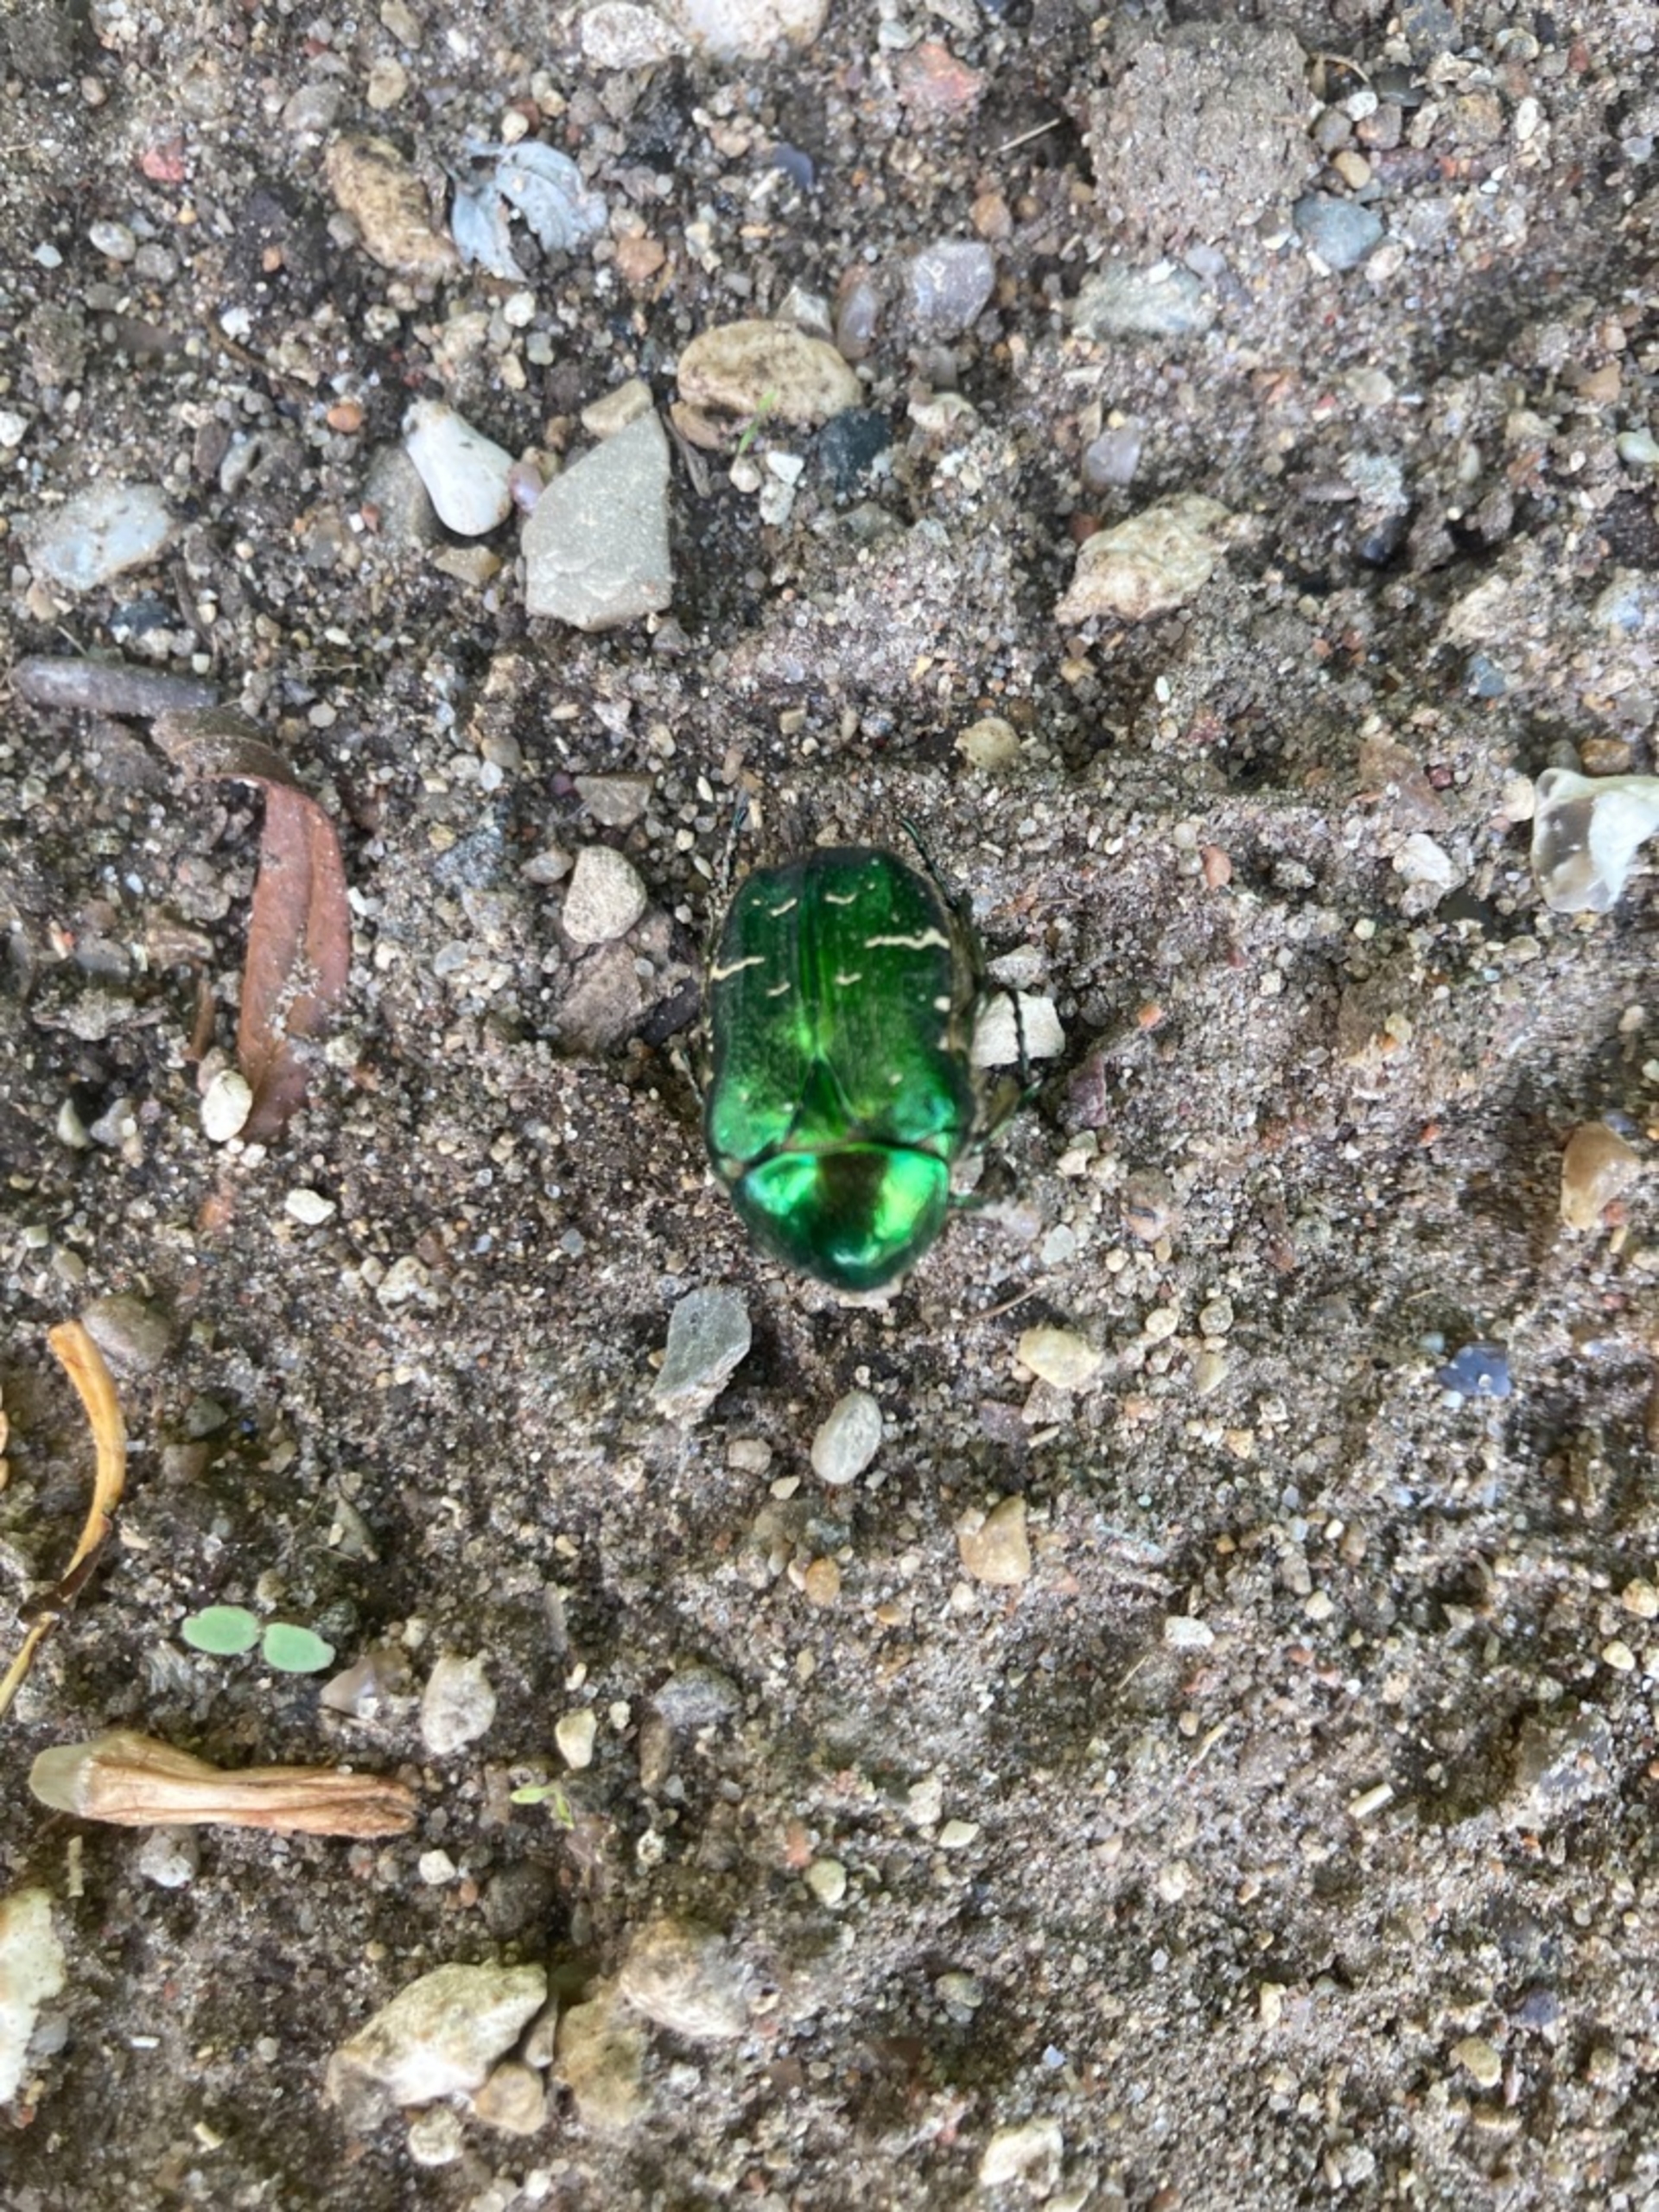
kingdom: Animalia
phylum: Arthropoda
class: Insecta
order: Coleoptera
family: Scarabaeidae
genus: Cetonia
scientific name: Cetonia aurata
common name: Grøn guldbasse
